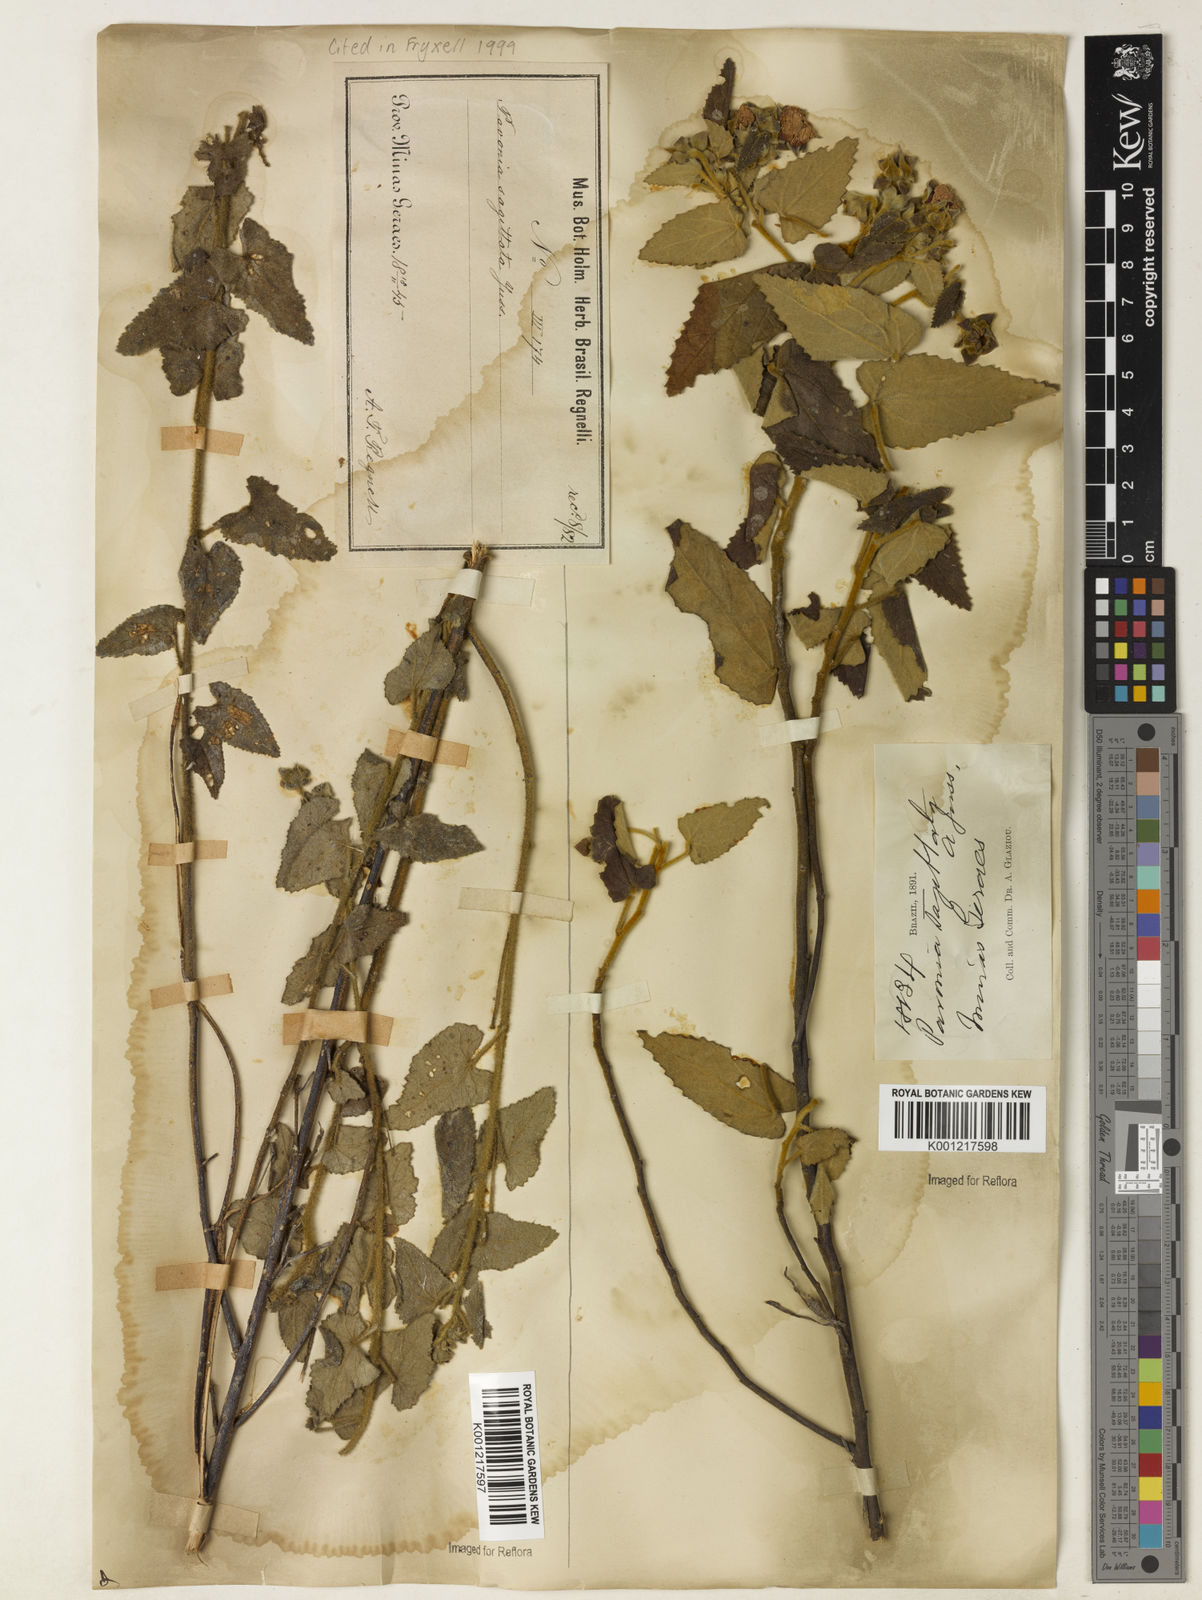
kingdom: Plantae
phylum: Tracheophyta
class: Magnoliopsida
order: Malvales
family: Malvaceae
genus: Pavonia
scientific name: Pavonia
